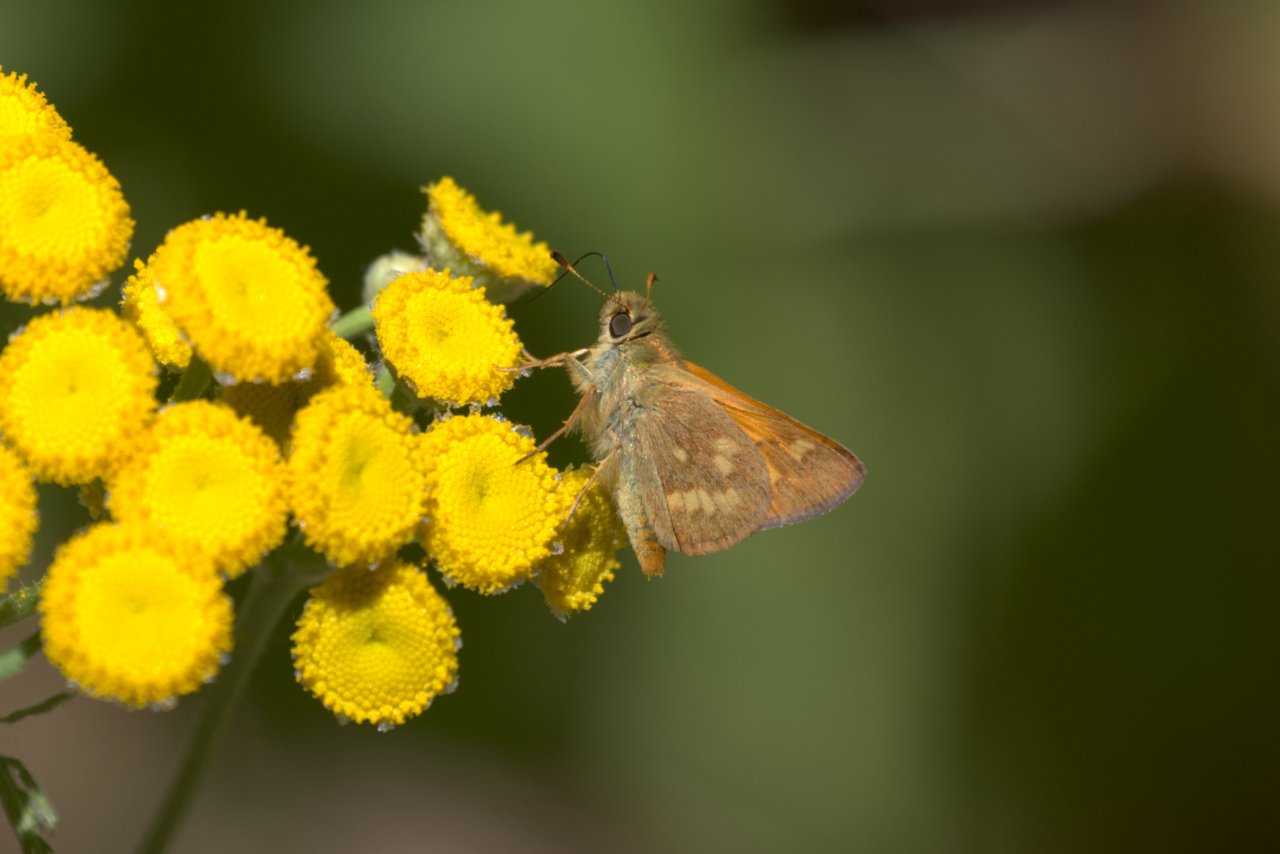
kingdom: Animalia
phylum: Arthropoda
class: Insecta
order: Lepidoptera
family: Hesperiidae
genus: Ochlodes
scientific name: Ochlodes sylvanoides
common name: Woodland Skipper
